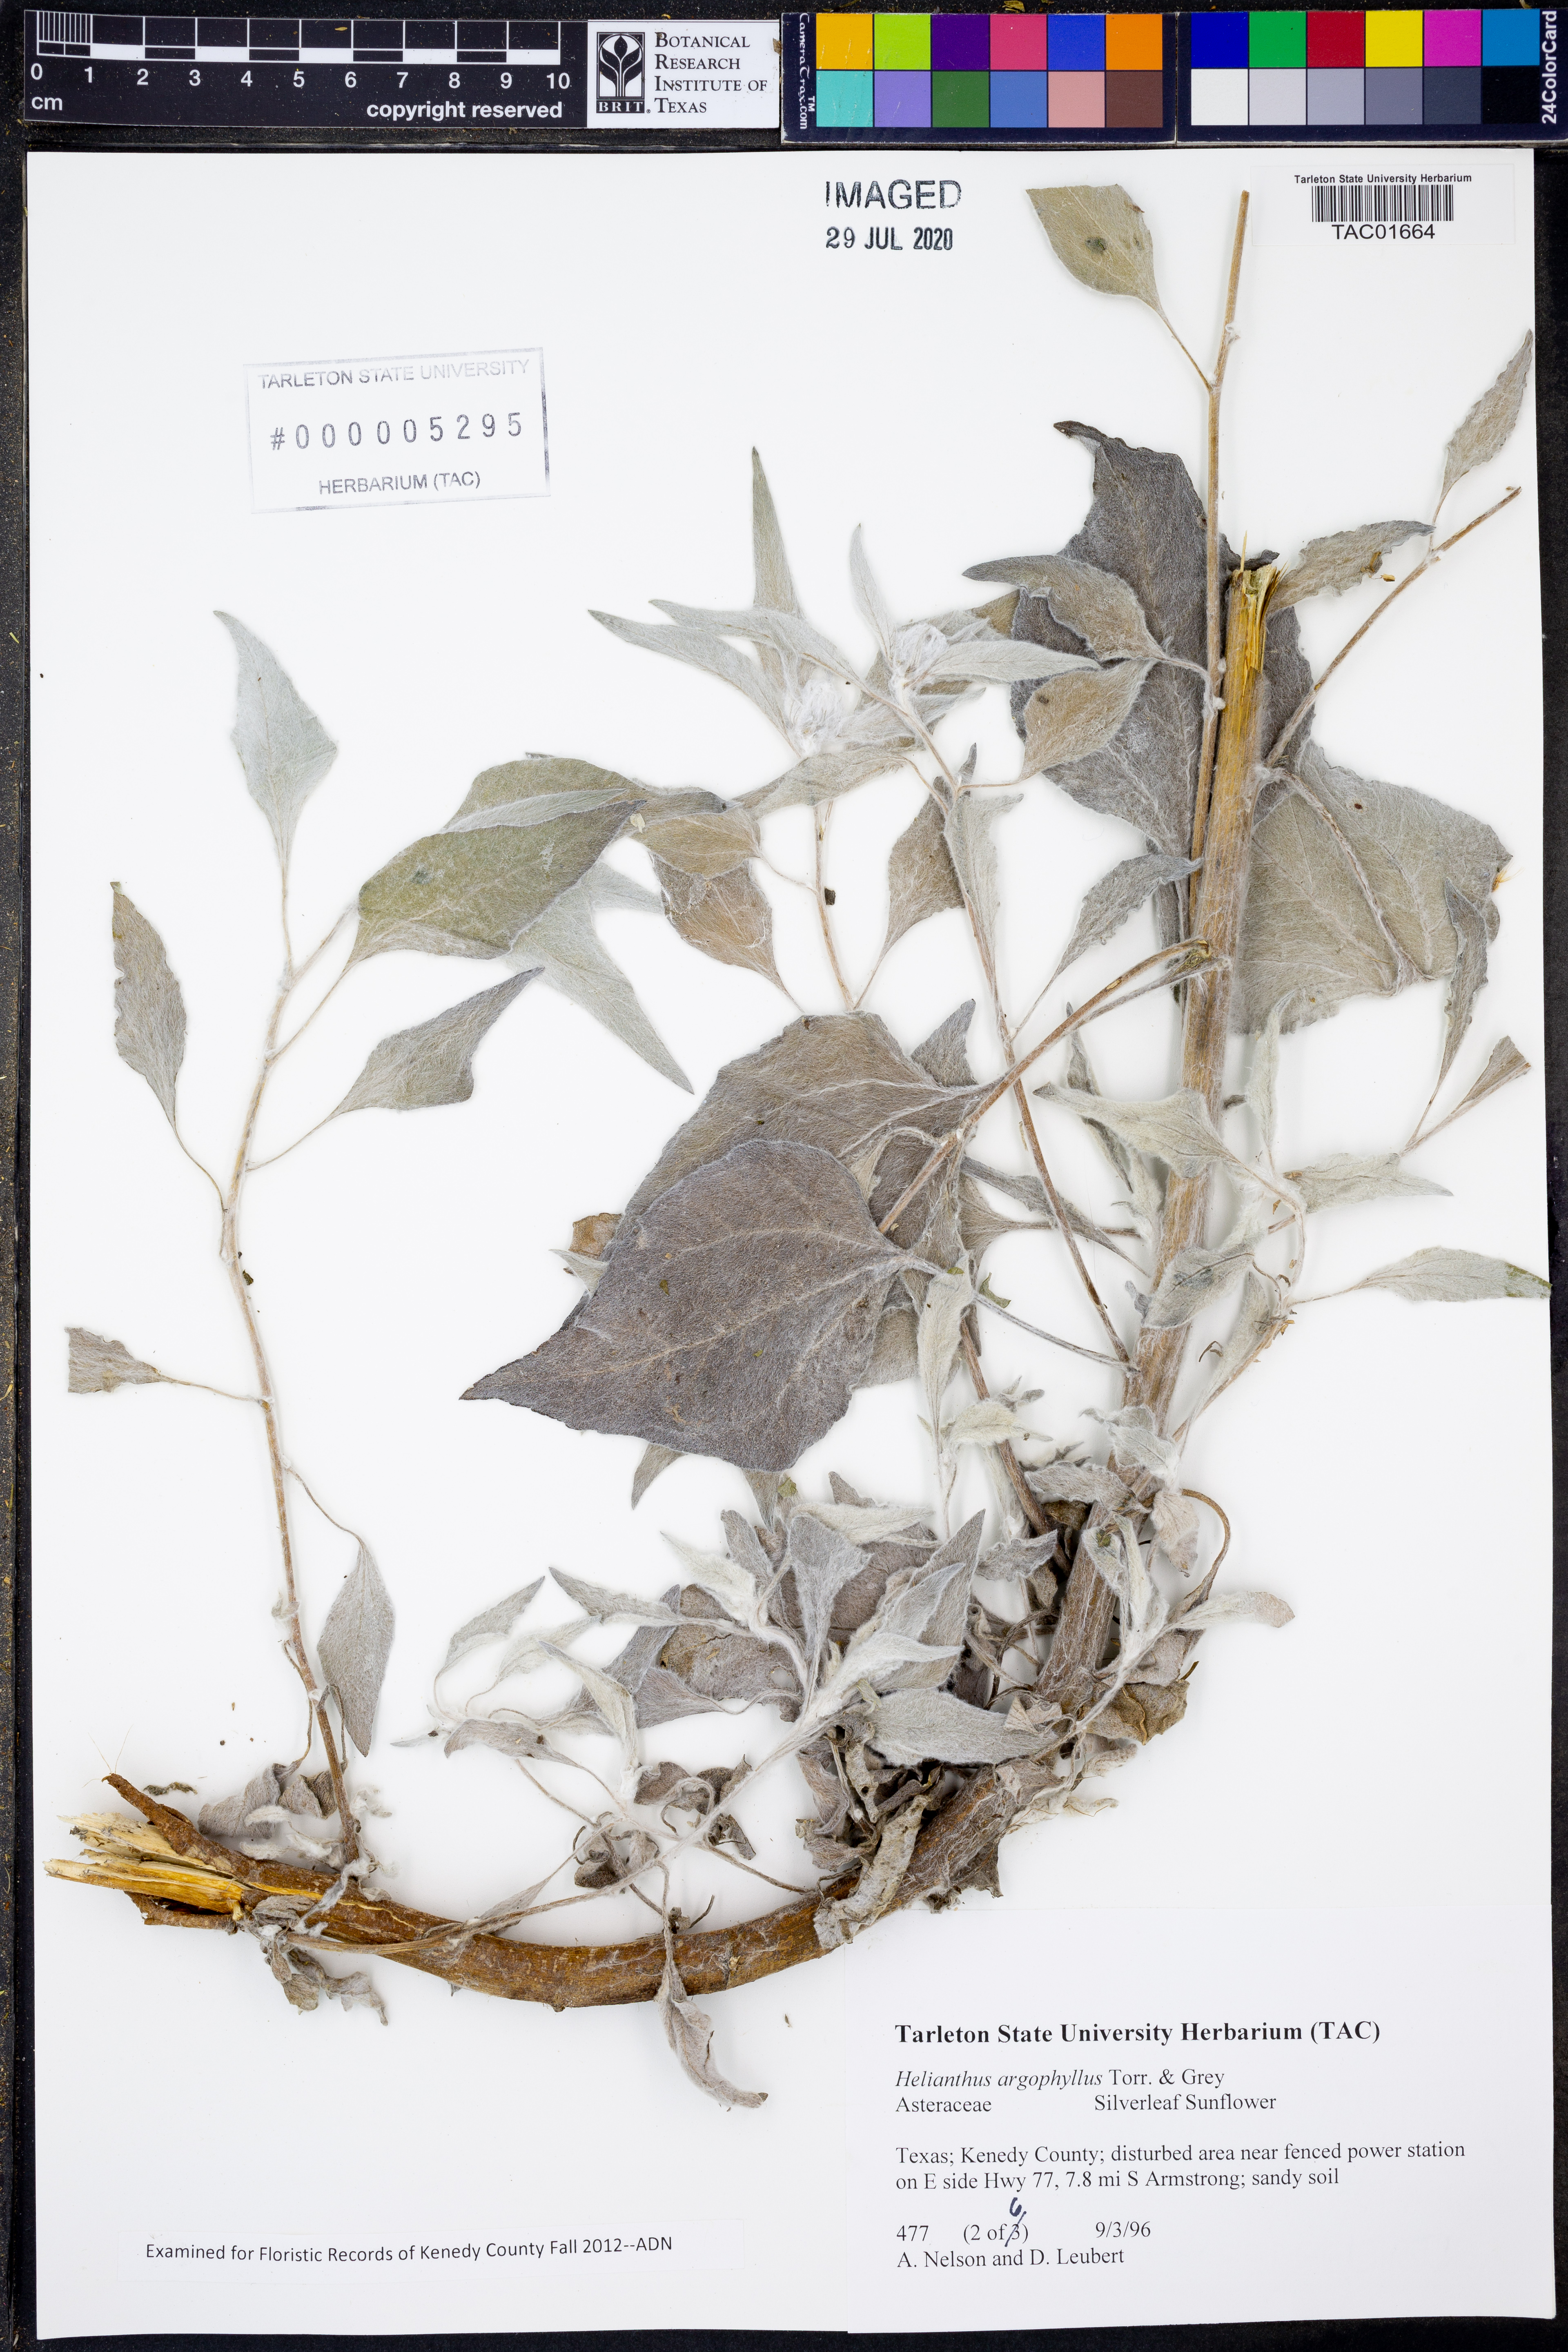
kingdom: Plantae
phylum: Tracheophyta
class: Magnoliopsida
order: Asterales
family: Asteraceae
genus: Helianthus
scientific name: Helianthus argophyllus
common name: Silverleaf sunflower
